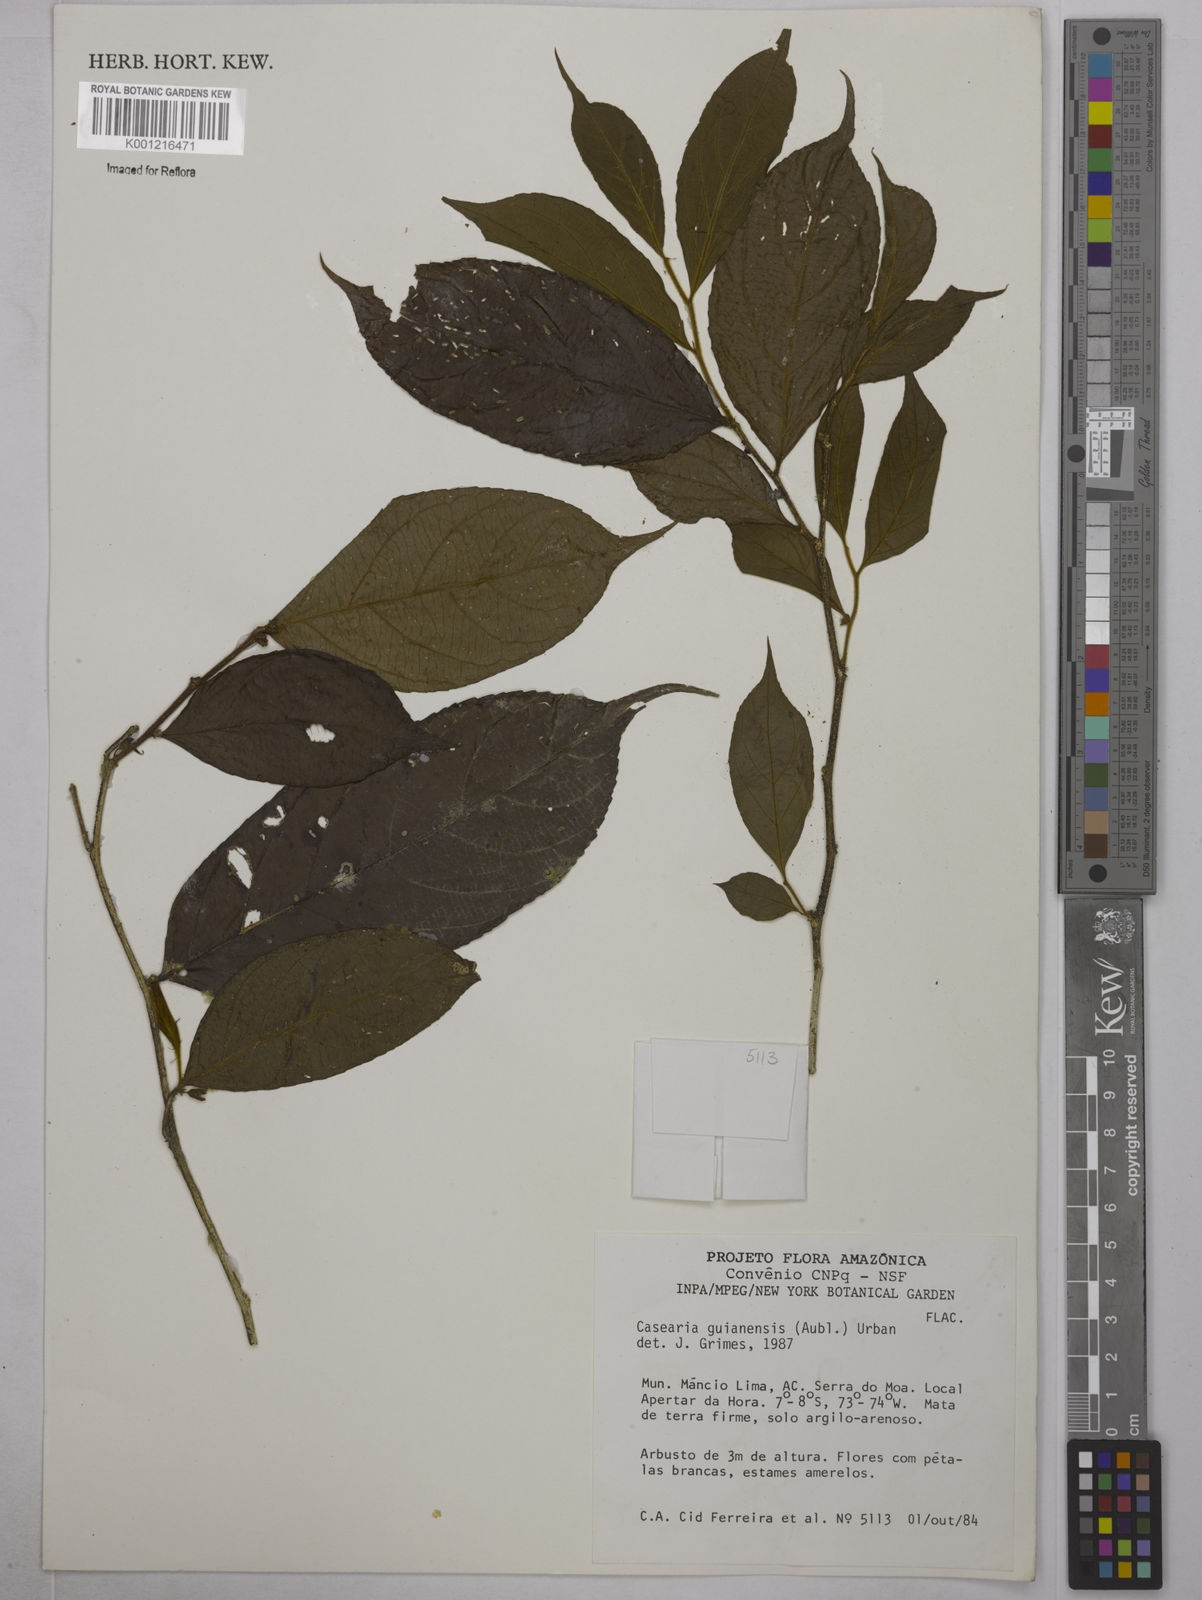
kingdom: Plantae
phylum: Tracheophyta
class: Magnoliopsida
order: Malpighiales
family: Salicaceae
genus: Casearia
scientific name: Casearia guianensis
